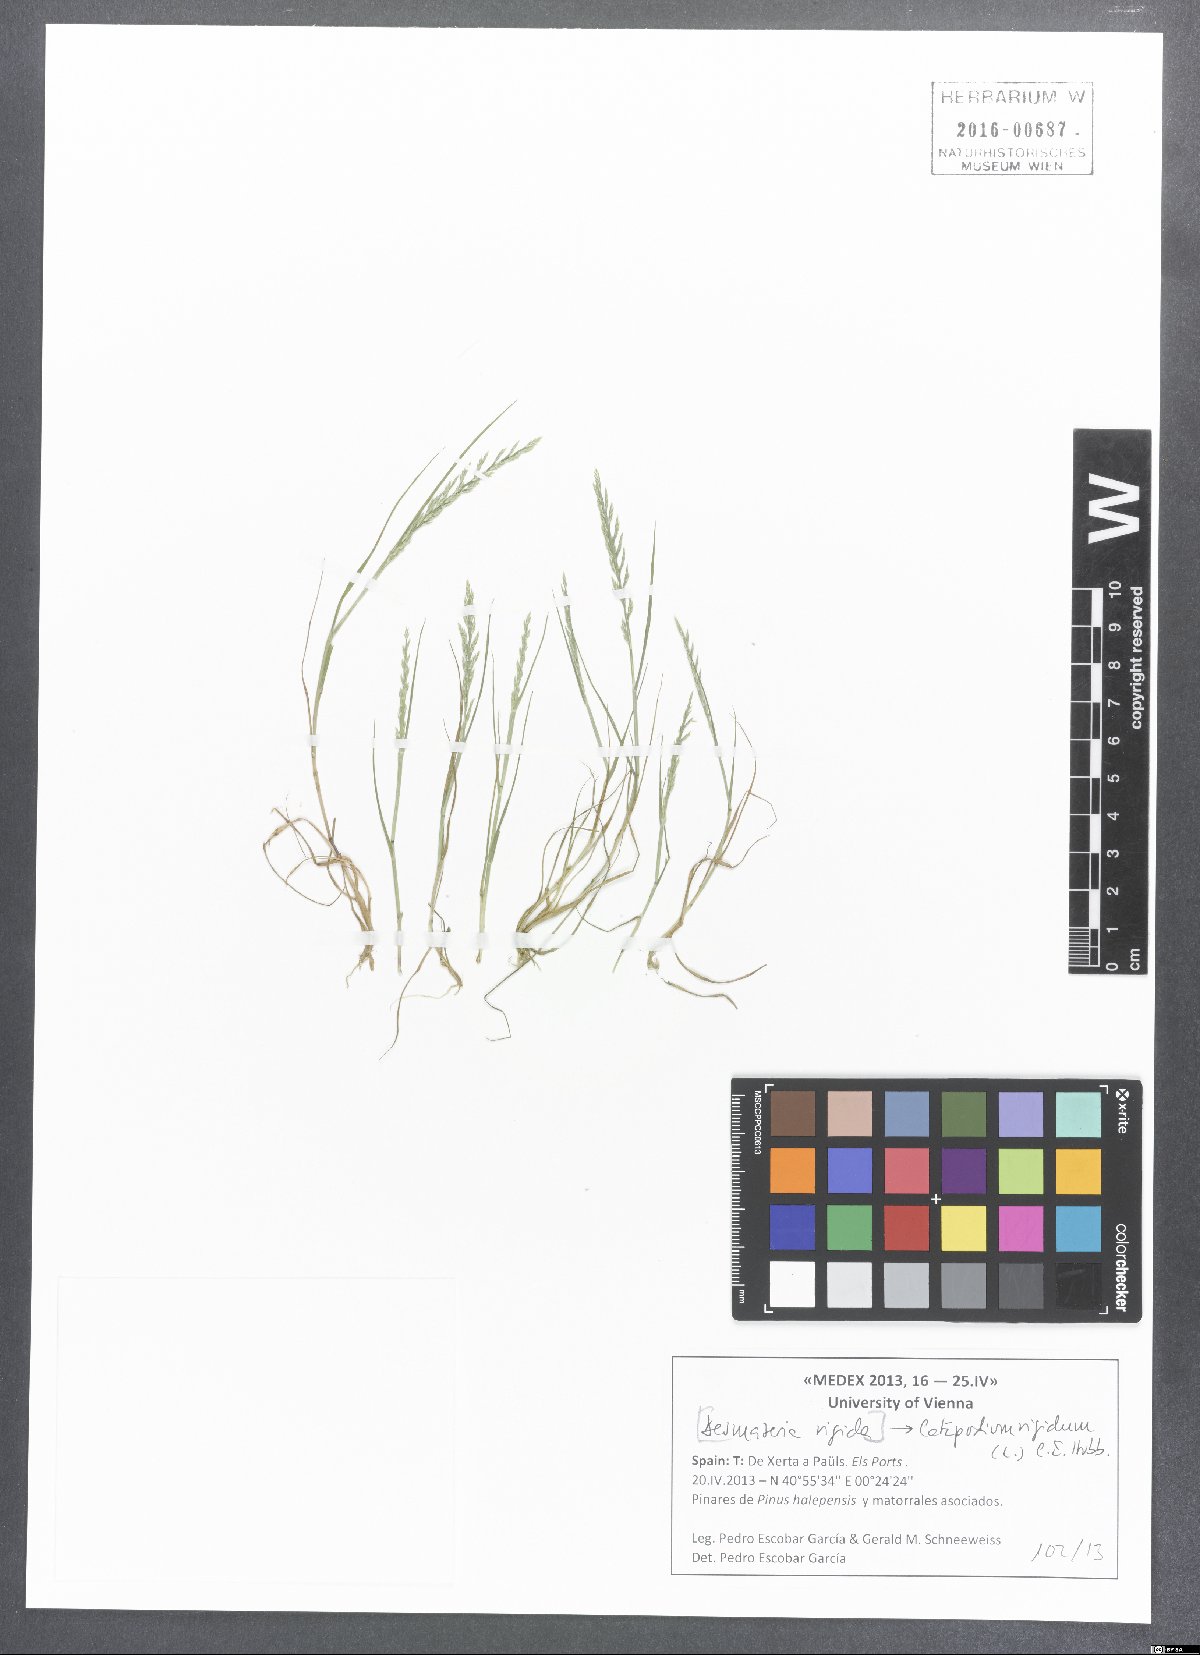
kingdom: Plantae
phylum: Tracheophyta
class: Liliopsida
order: Poales
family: Poaceae
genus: Catapodium
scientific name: Catapodium rigidum
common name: Fern-grass
